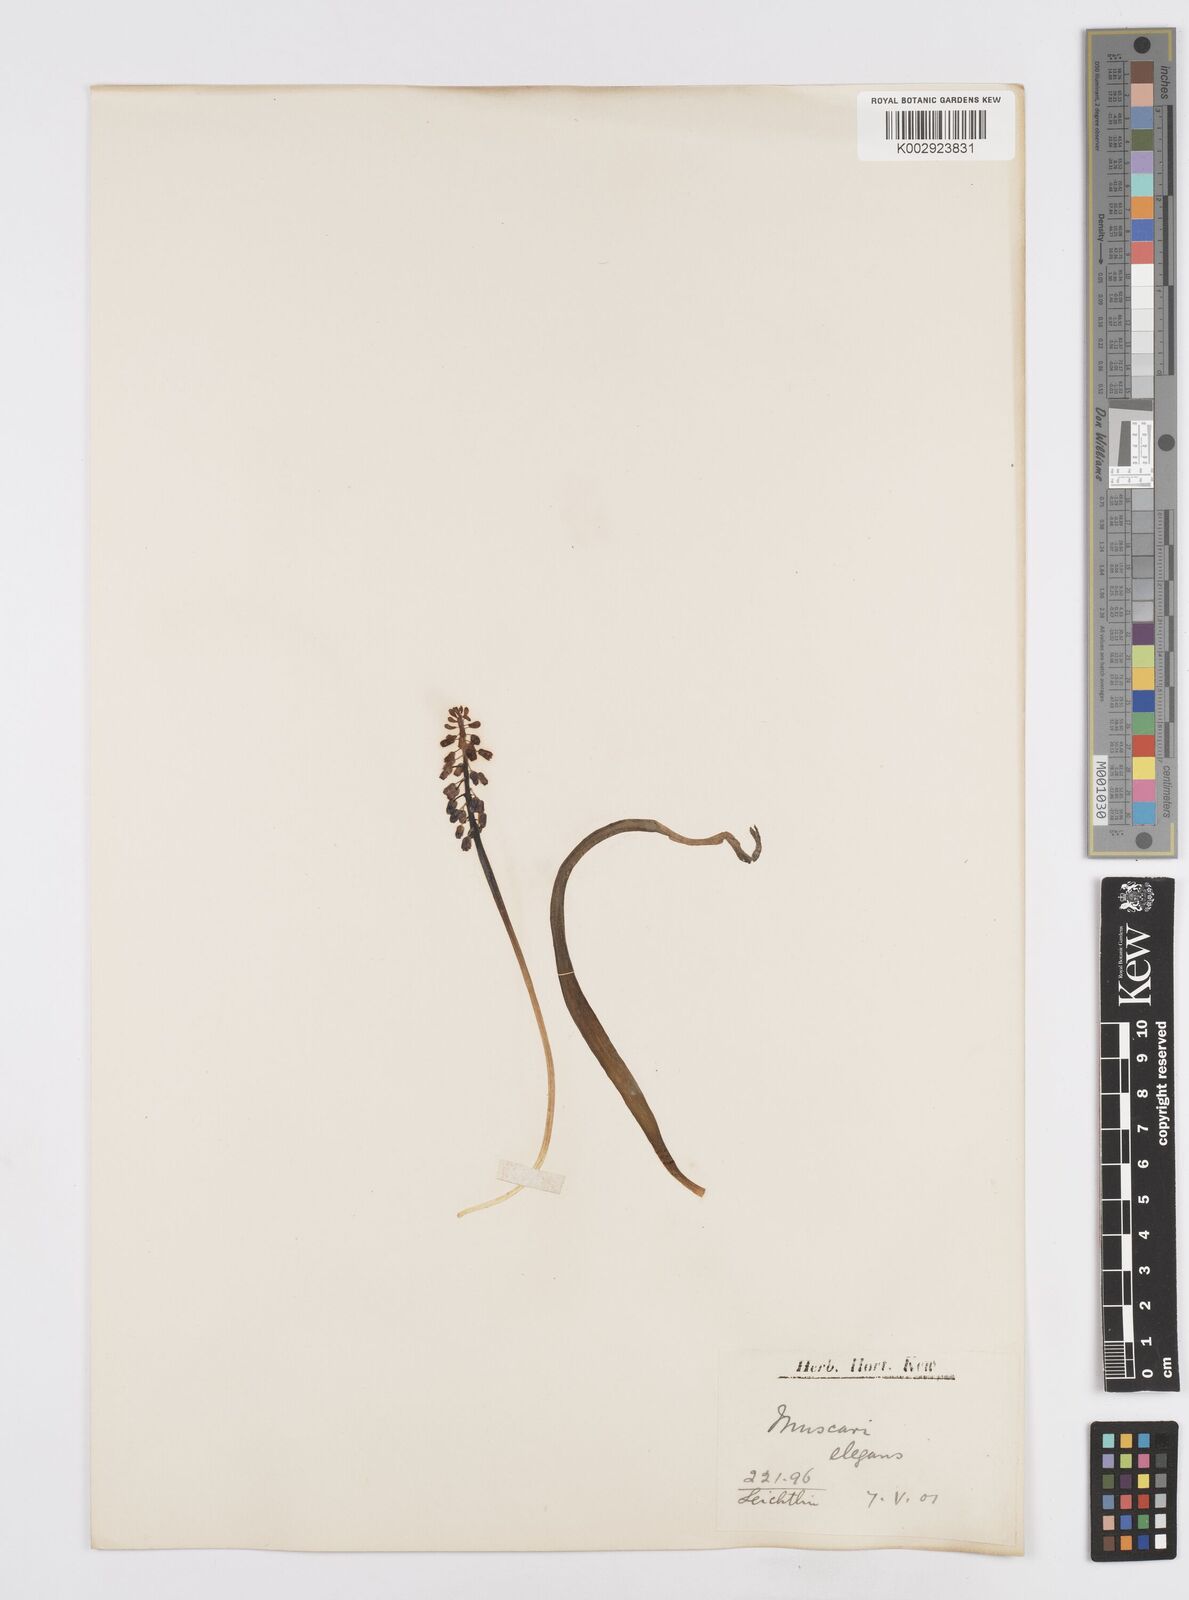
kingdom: Plantae
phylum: Tracheophyta
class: Liliopsida
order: Asparagales
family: Asparagaceae
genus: Muscari
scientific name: Muscari coeleste
